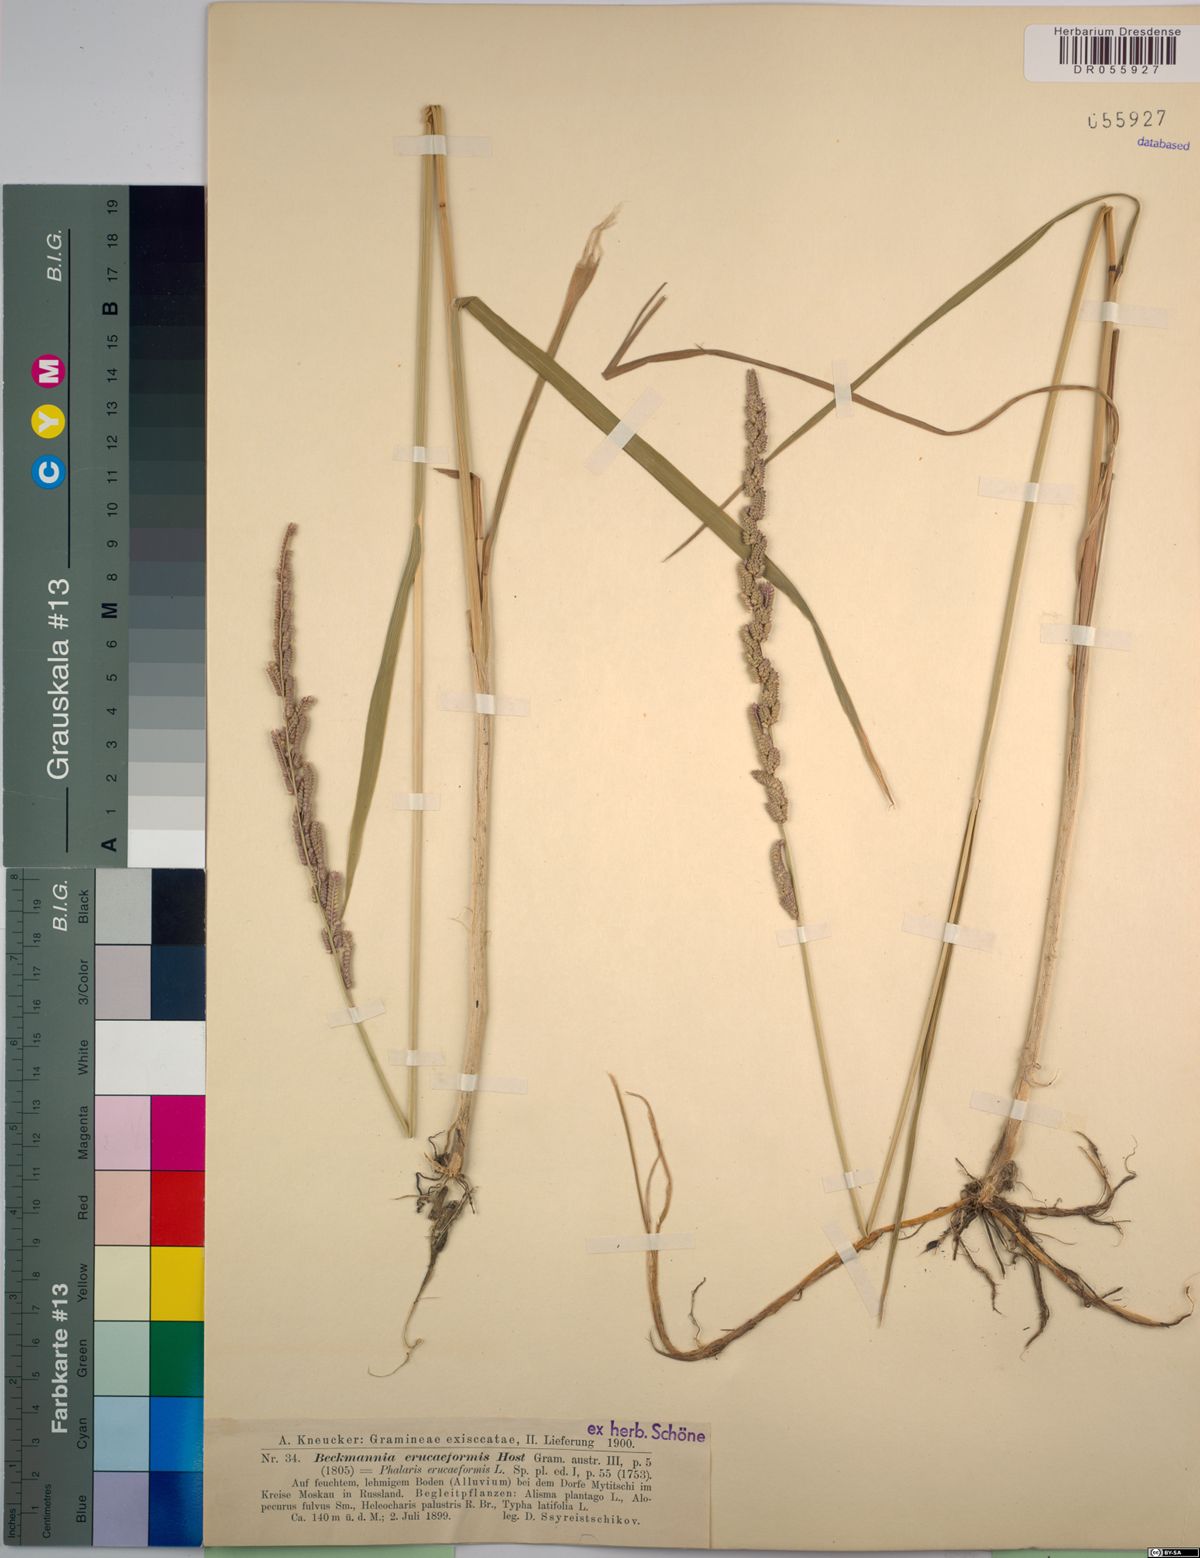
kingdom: Plantae
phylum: Tracheophyta
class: Liliopsida
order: Poales
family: Poaceae
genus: Beckmannia
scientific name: Beckmannia eruciformis
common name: European slough-grass
